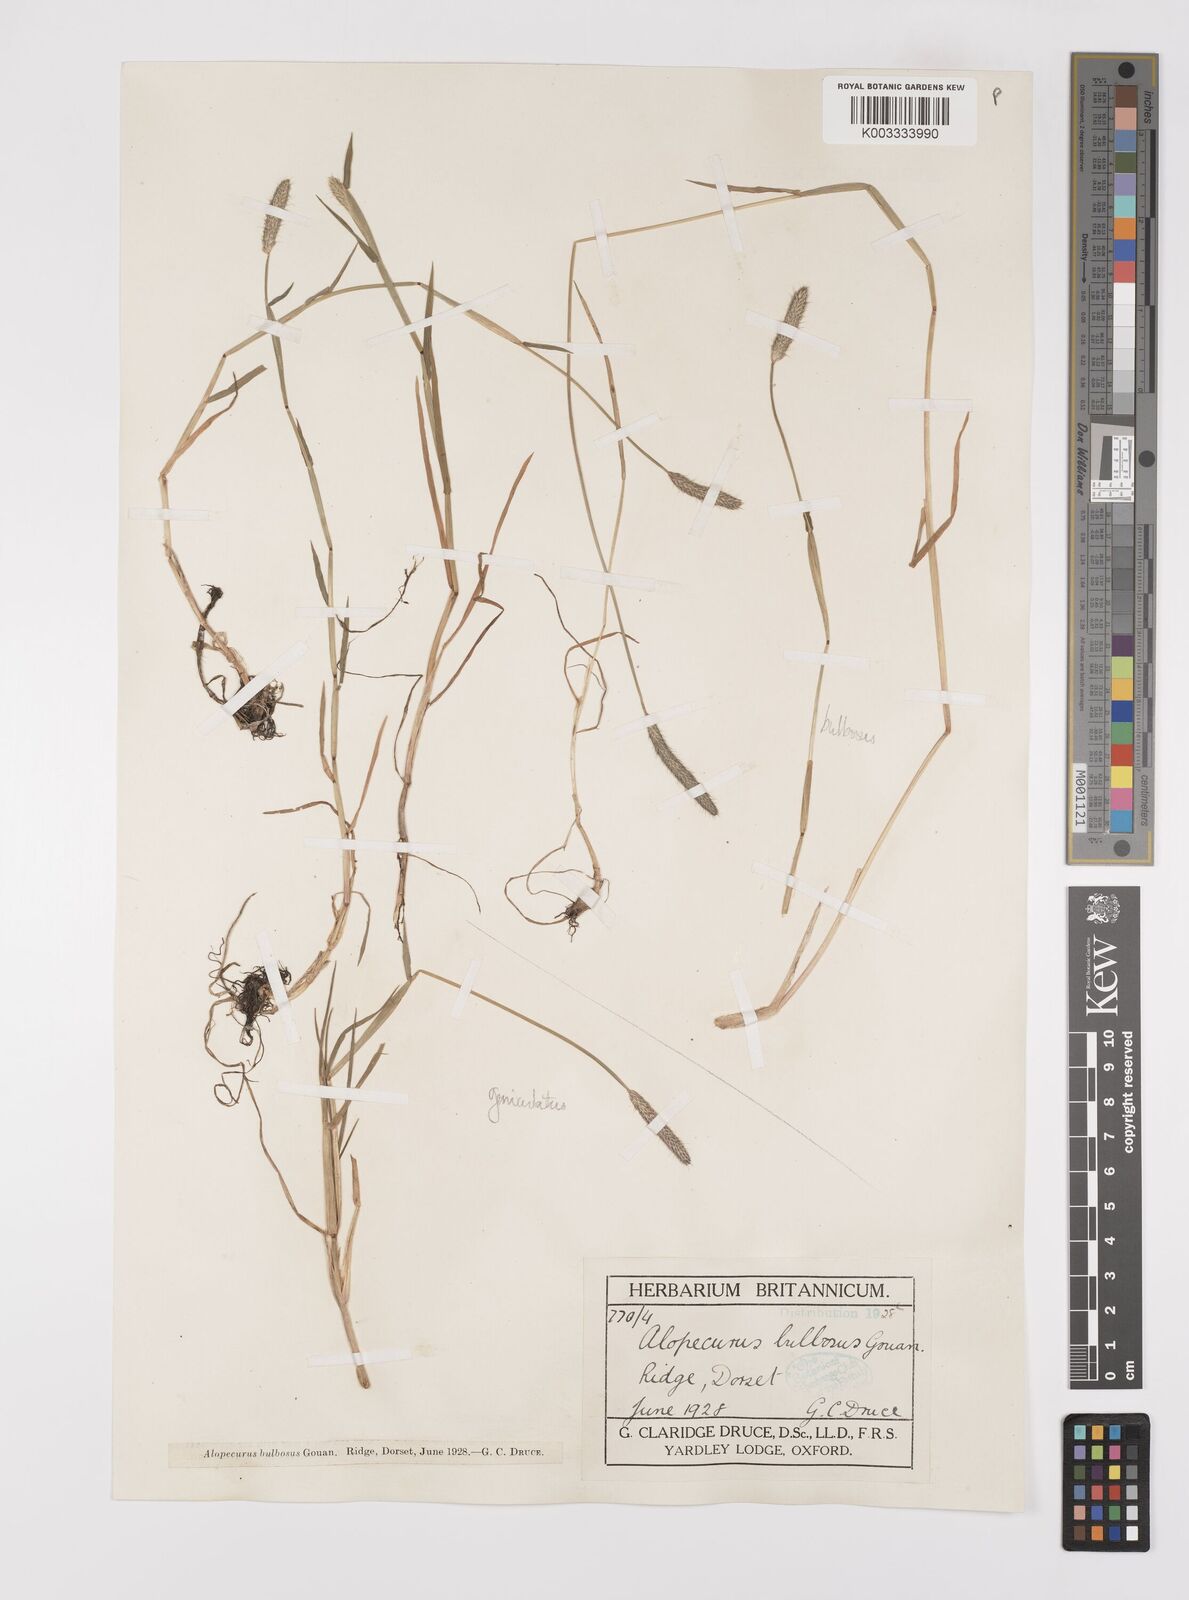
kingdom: Plantae
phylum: Tracheophyta
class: Liliopsida
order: Poales
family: Poaceae
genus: Alopecurus
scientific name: Alopecurus geniculatus
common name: Water foxtail
